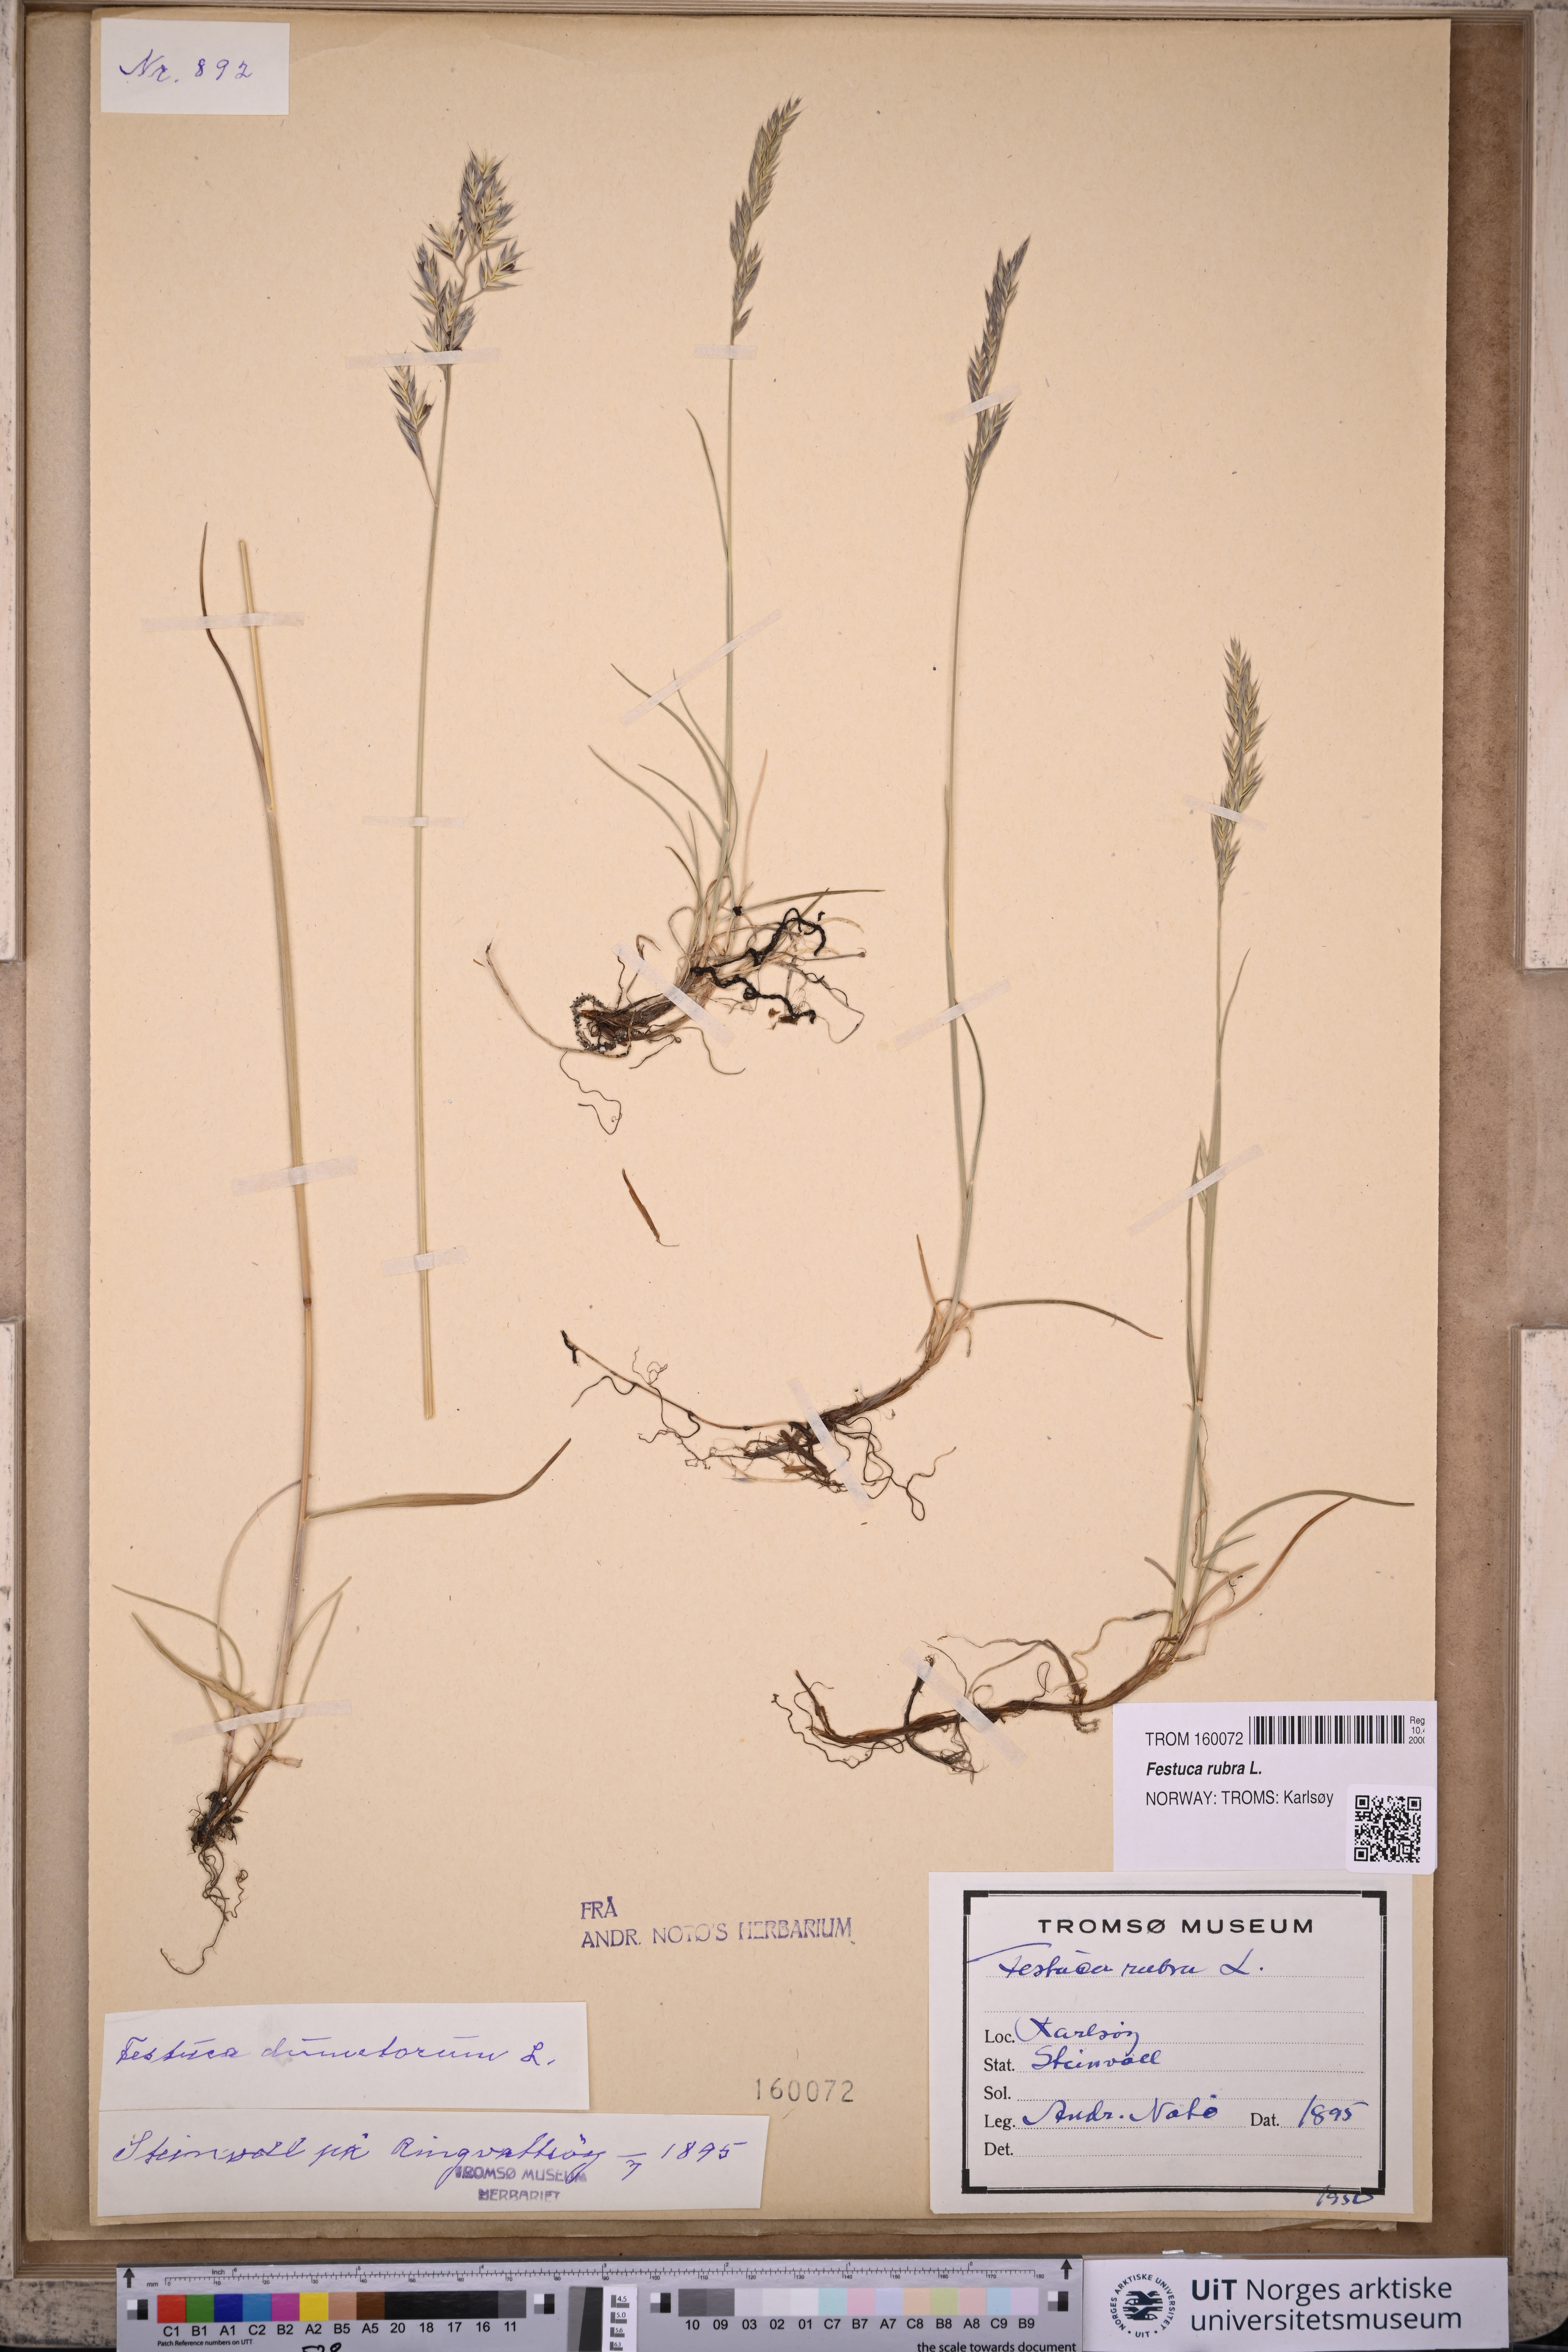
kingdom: Plantae
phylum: Tracheophyta
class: Liliopsida
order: Poales
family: Poaceae
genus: Festuca
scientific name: Festuca rubra
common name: Red fescue
